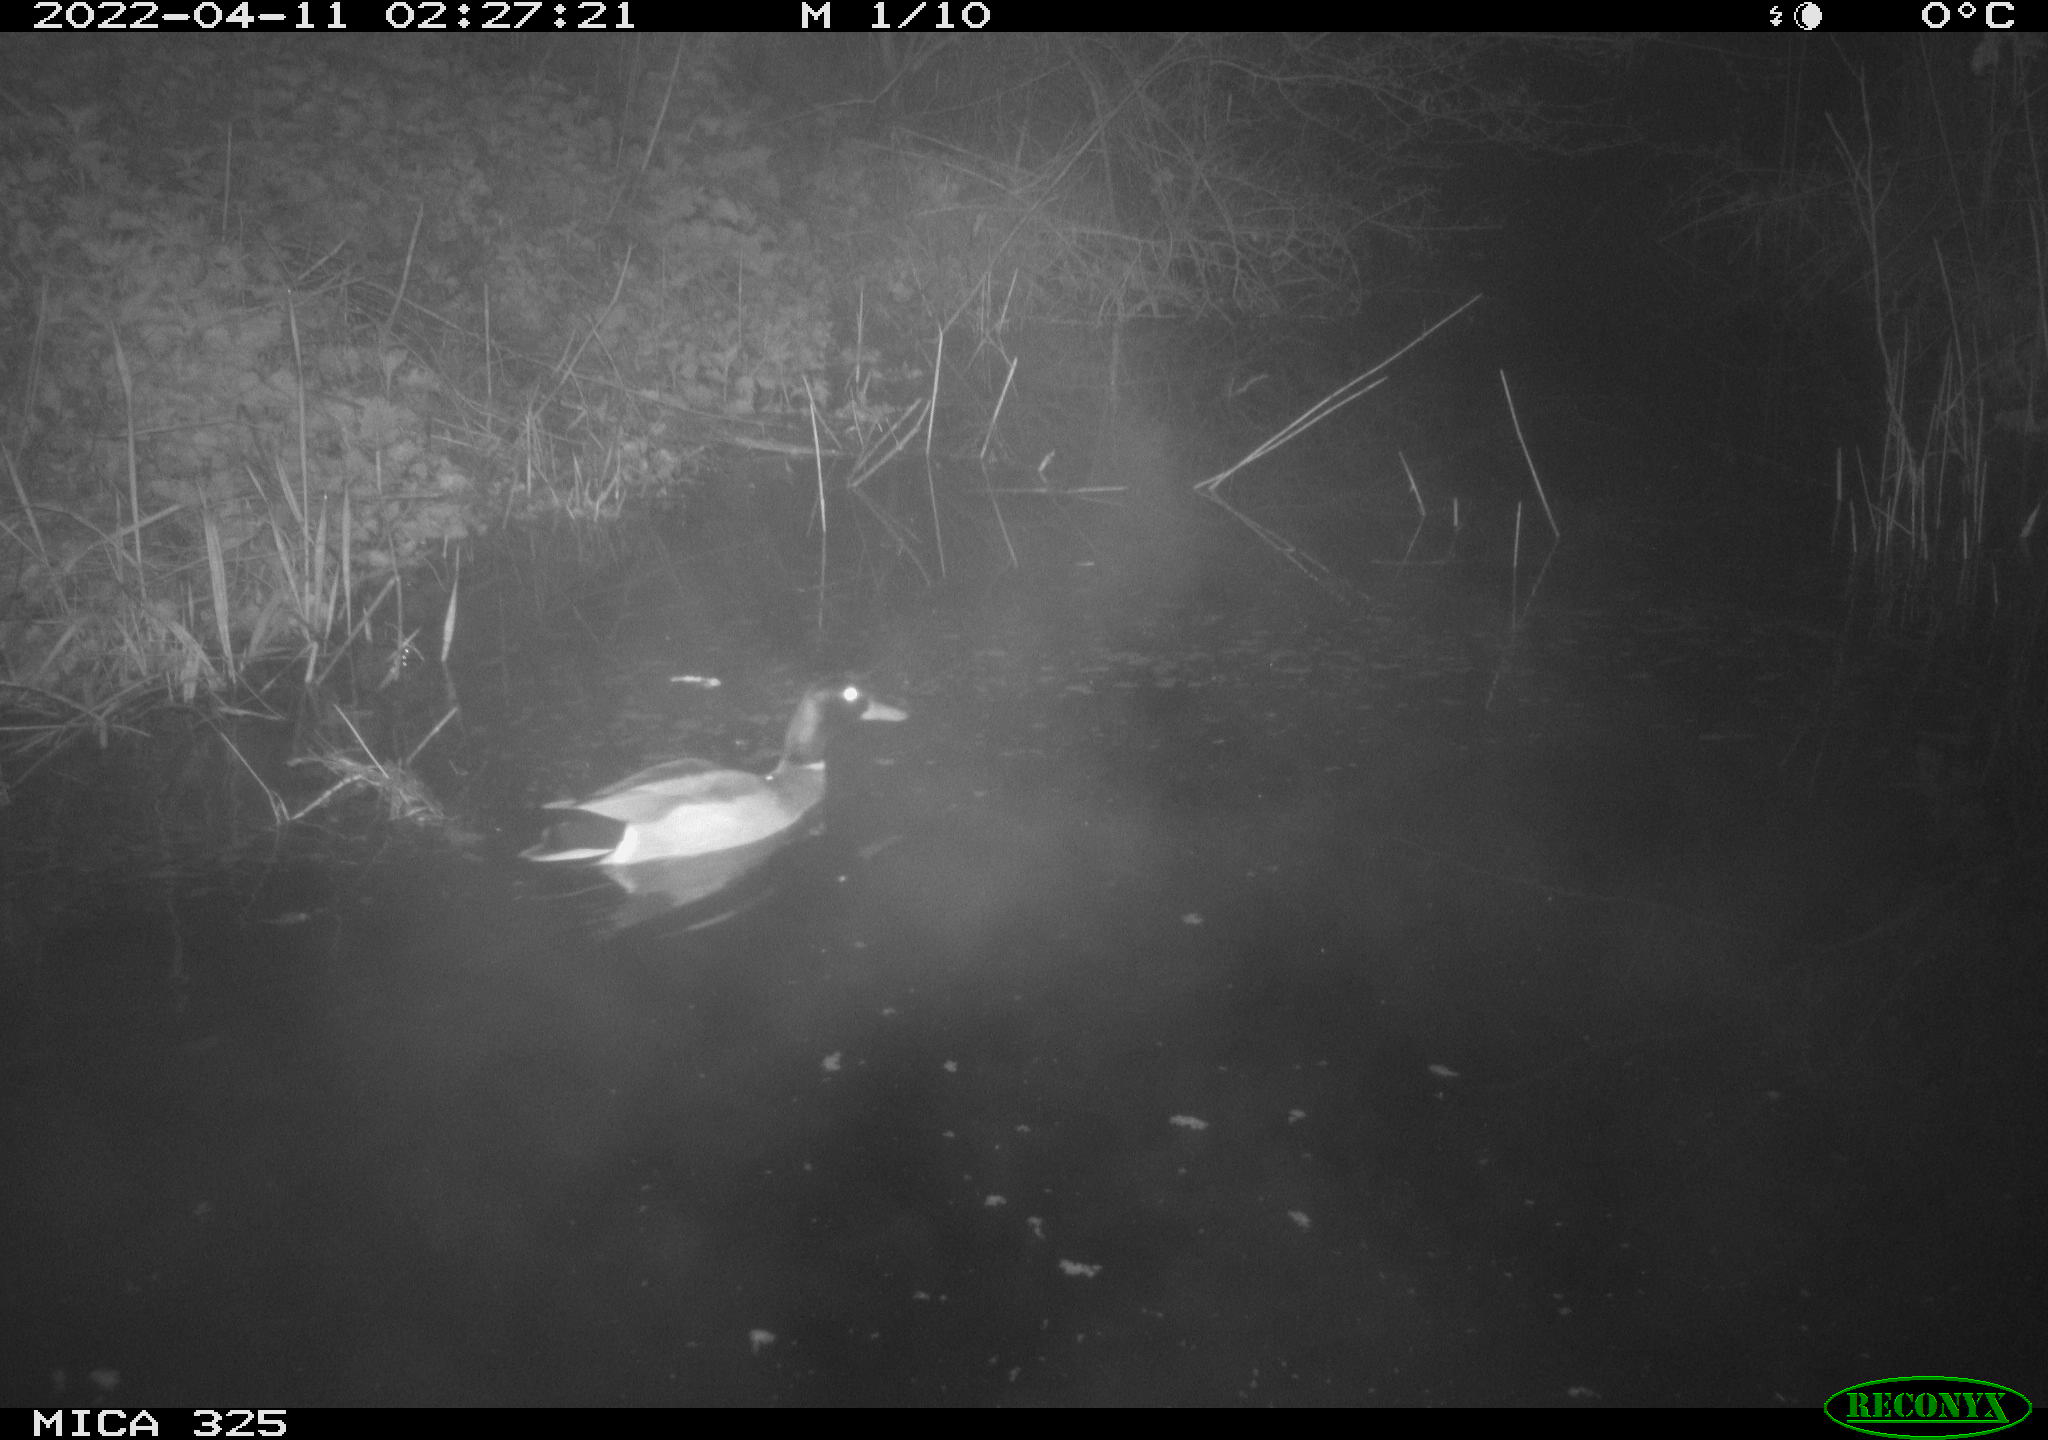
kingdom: Animalia
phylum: Chordata
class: Aves
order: Anseriformes
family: Anatidae
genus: Anas
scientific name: Anas platyrhynchos
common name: Mallard
